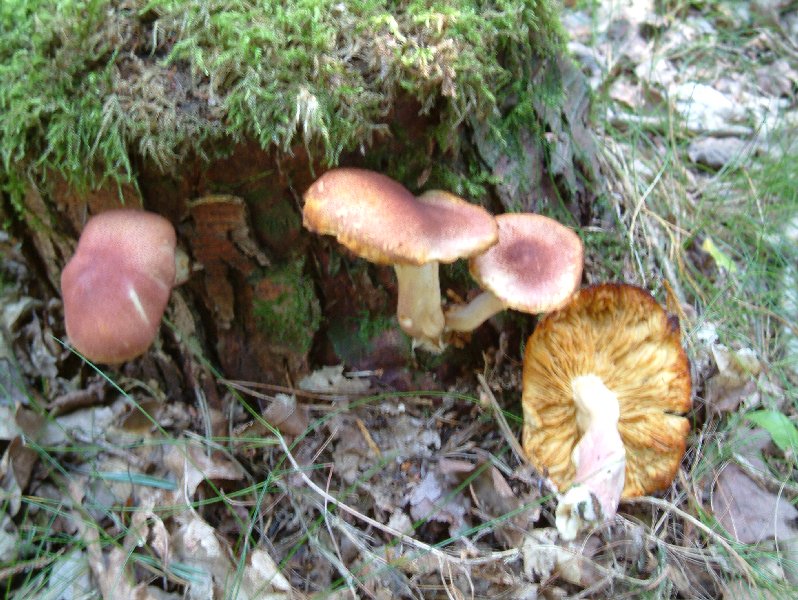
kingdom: Fungi
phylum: Basidiomycota
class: Agaricomycetes
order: Agaricales
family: Tricholomataceae
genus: Tricholomopsis
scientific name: Tricholomopsis rutilans
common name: purpur-væbnerhat
